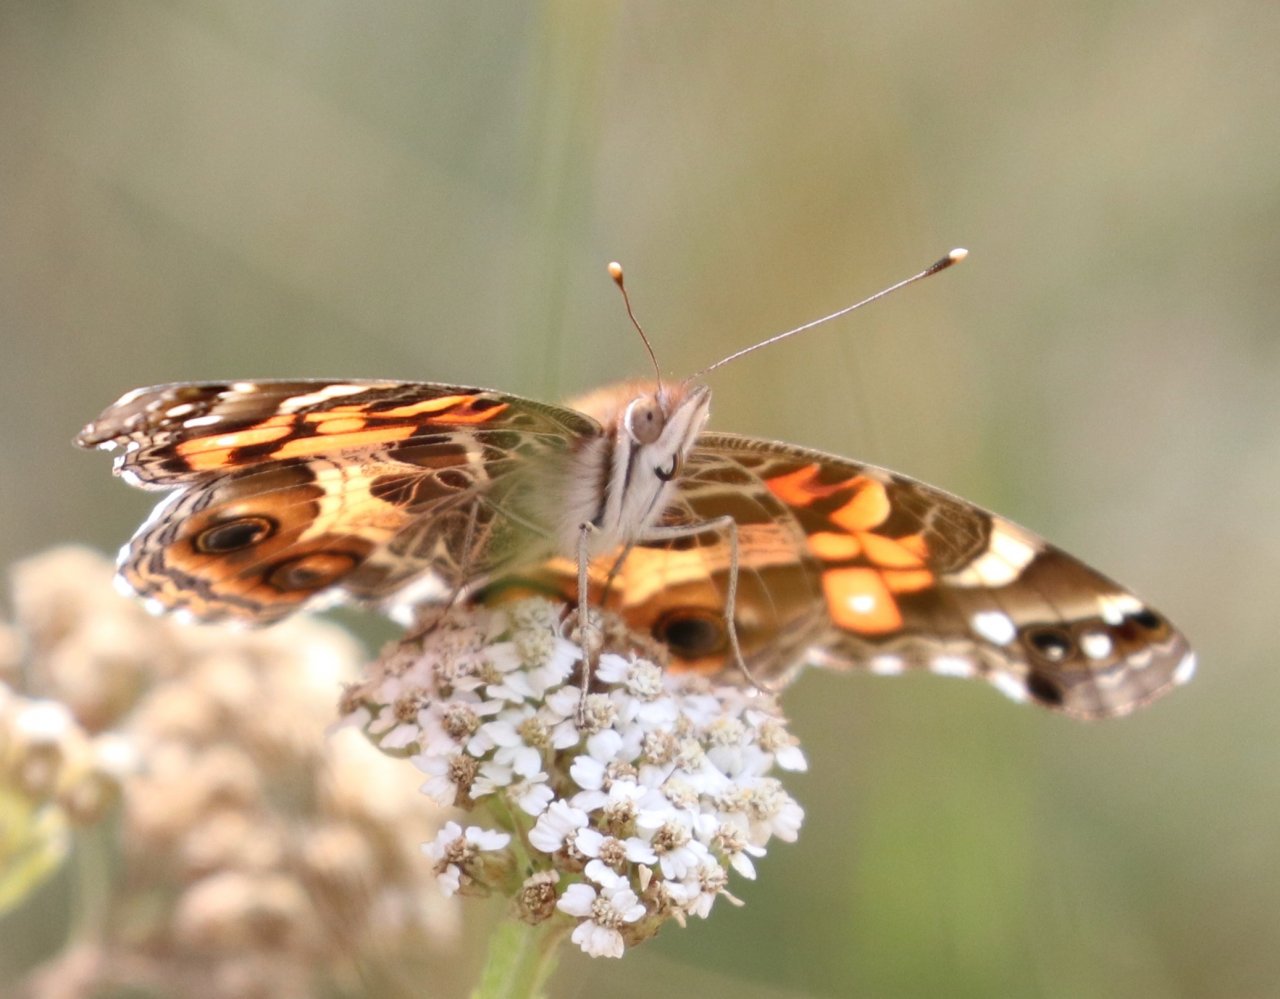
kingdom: Animalia
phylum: Arthropoda
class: Insecta
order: Lepidoptera
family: Nymphalidae
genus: Vanessa
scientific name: Vanessa virginiensis
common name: American Lady
